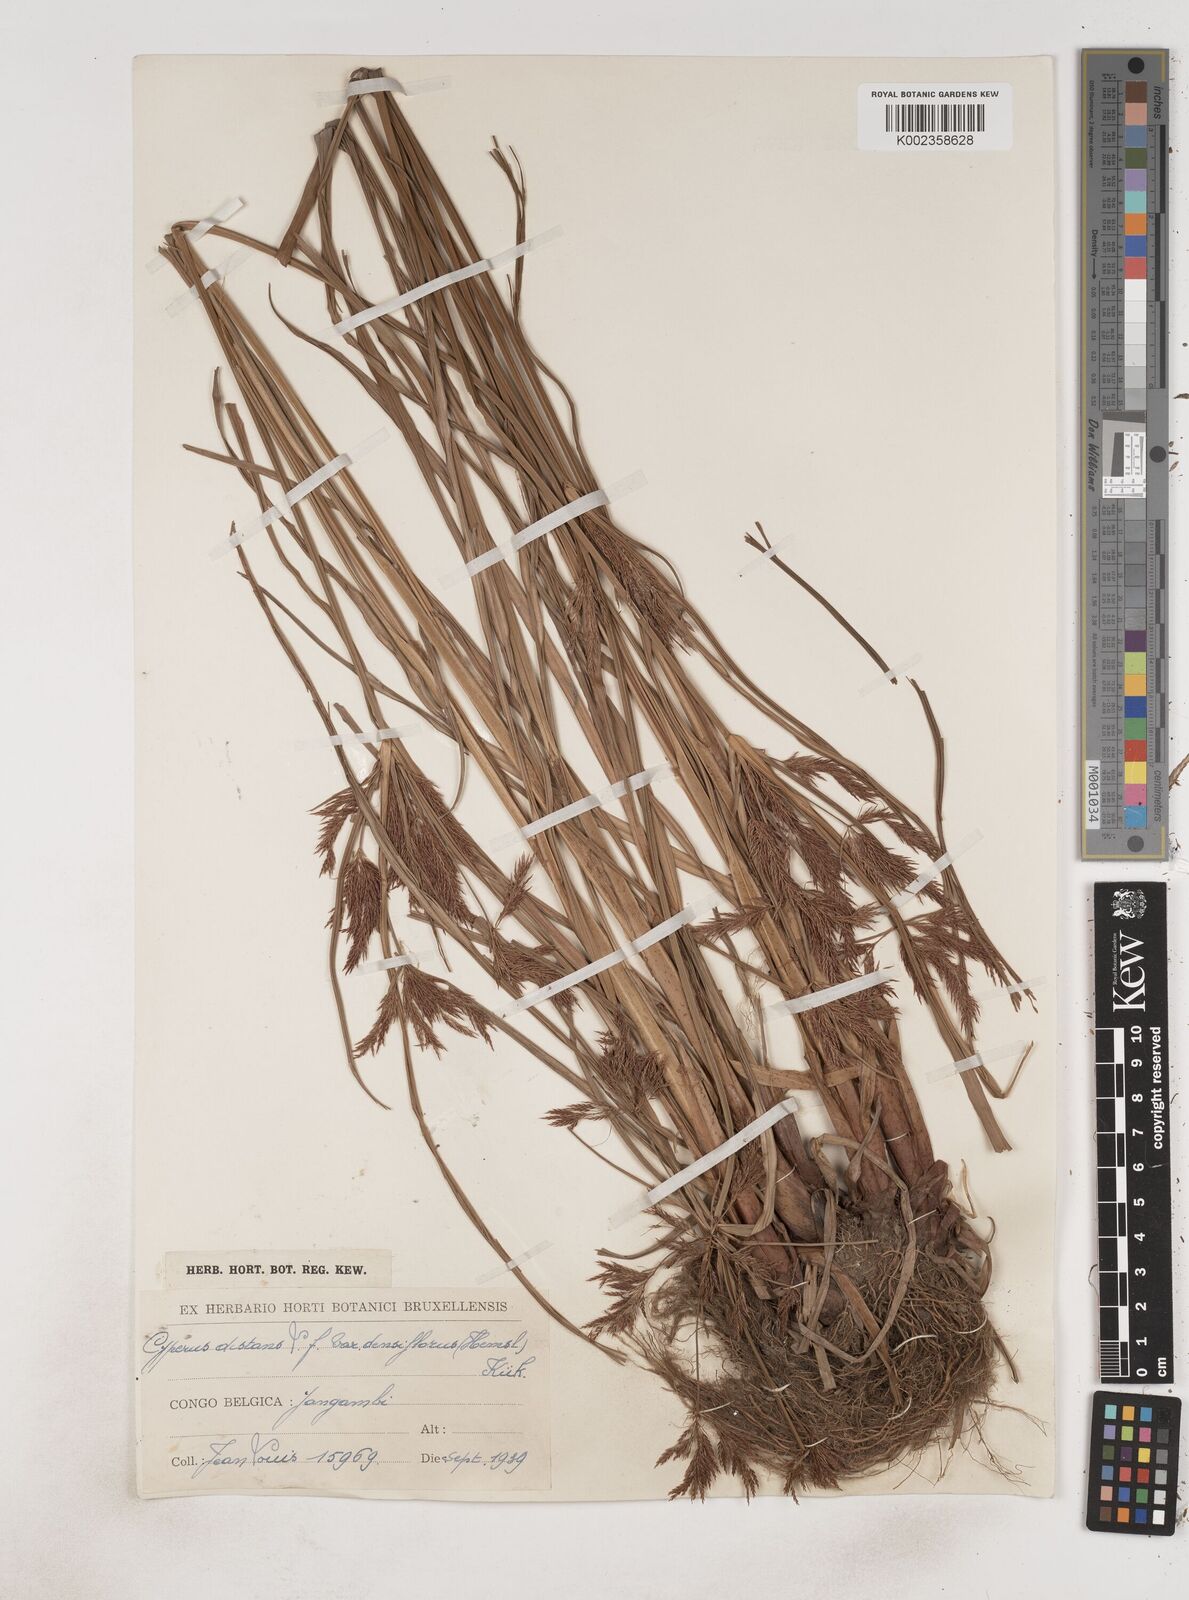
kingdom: Plantae
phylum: Tracheophyta
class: Liliopsida
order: Poales
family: Cyperaceae
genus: Cyperus
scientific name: Cyperus distans
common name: Slender cyperus
